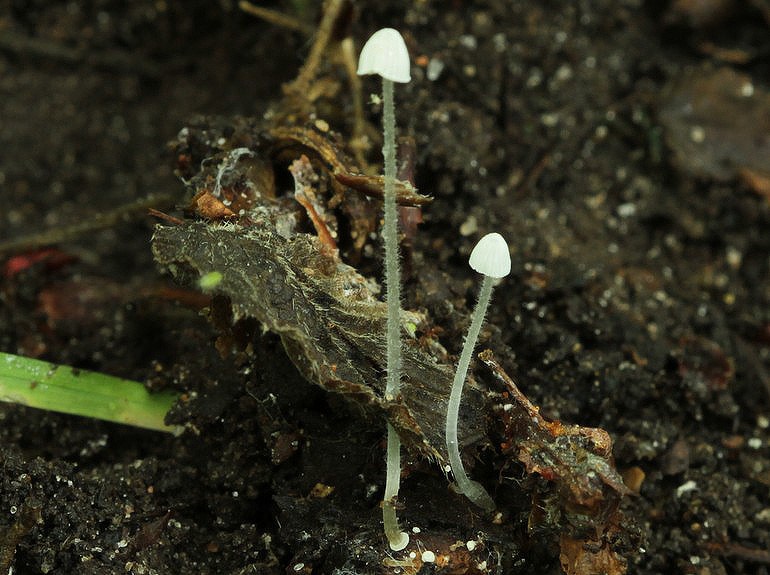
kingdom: Fungi
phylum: Basidiomycota
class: Agaricomycetes
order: Agaricales
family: Mycenaceae
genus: Mycena
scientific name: Mycena tenerrima
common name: pudret huesvamp
